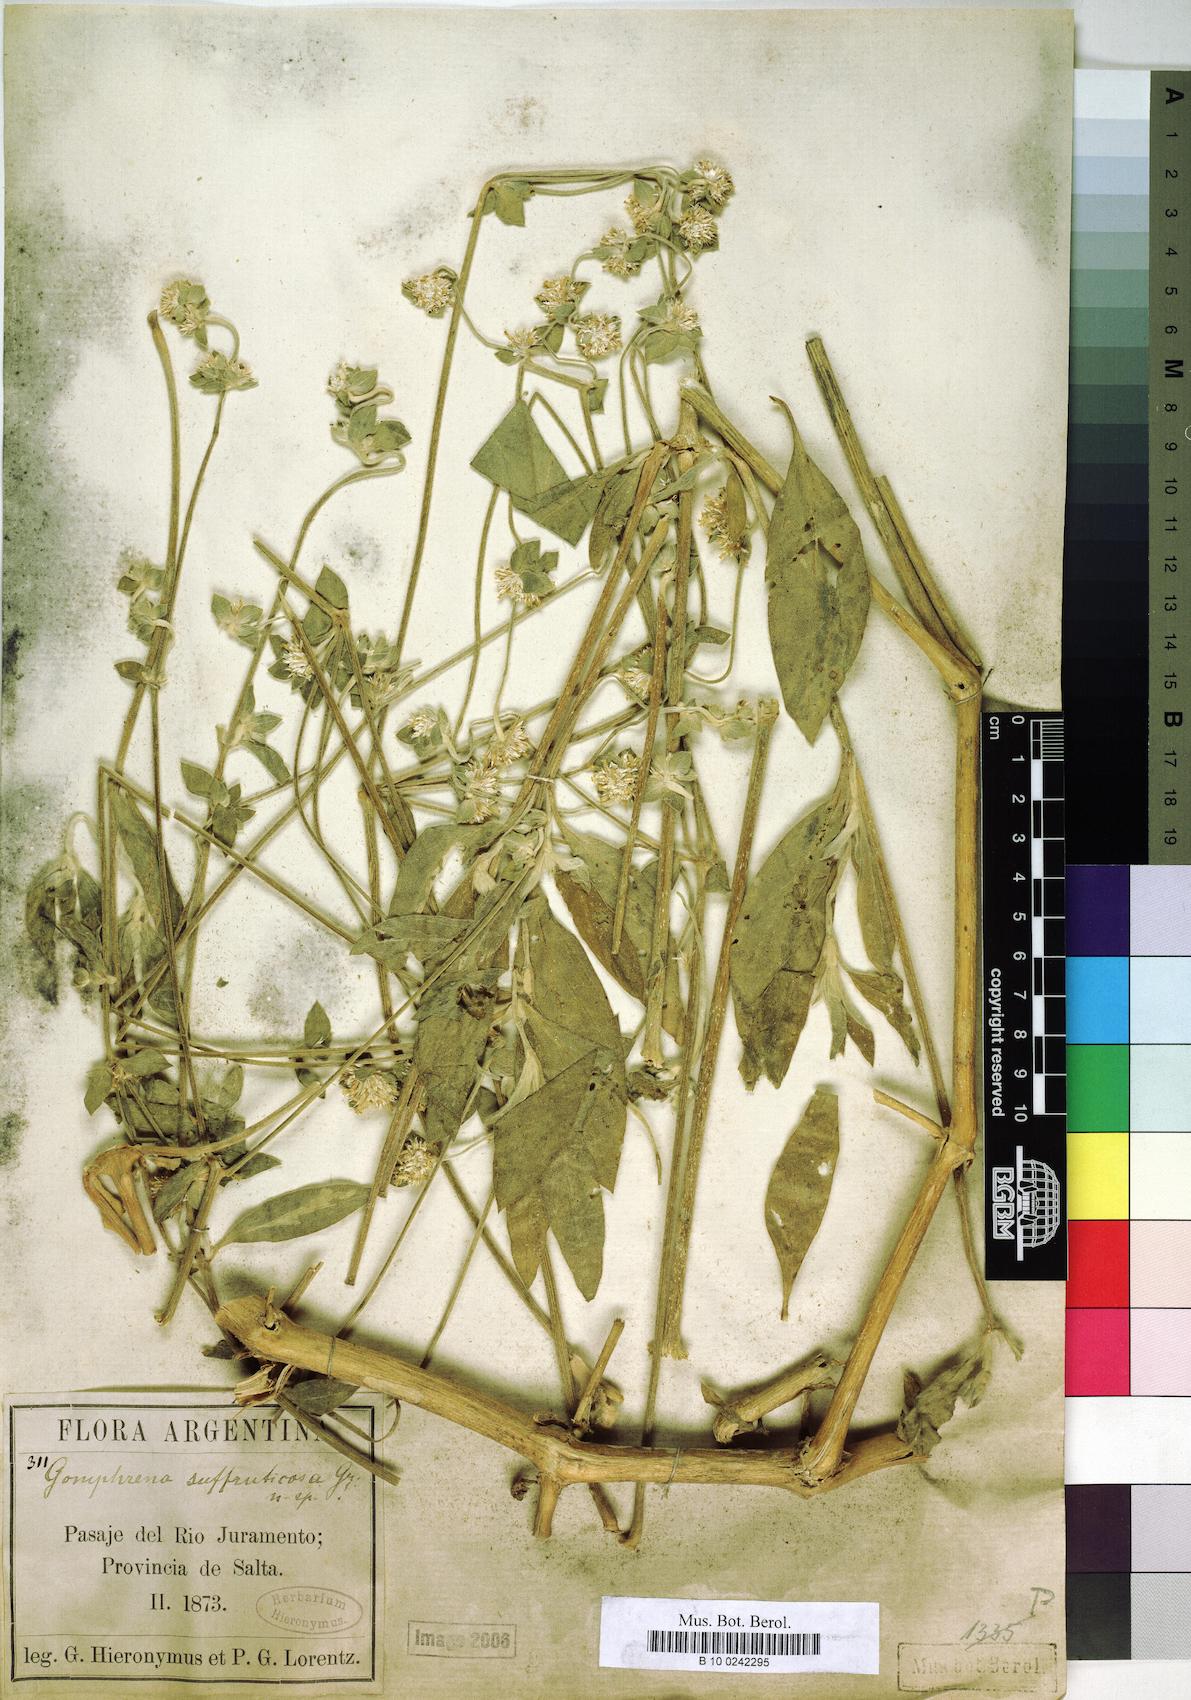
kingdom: Plantae
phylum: Tracheophyta
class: Magnoliopsida
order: Caryophyllales
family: Amaranthaceae
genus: Gomphrena
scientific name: Gomphrena perennis
